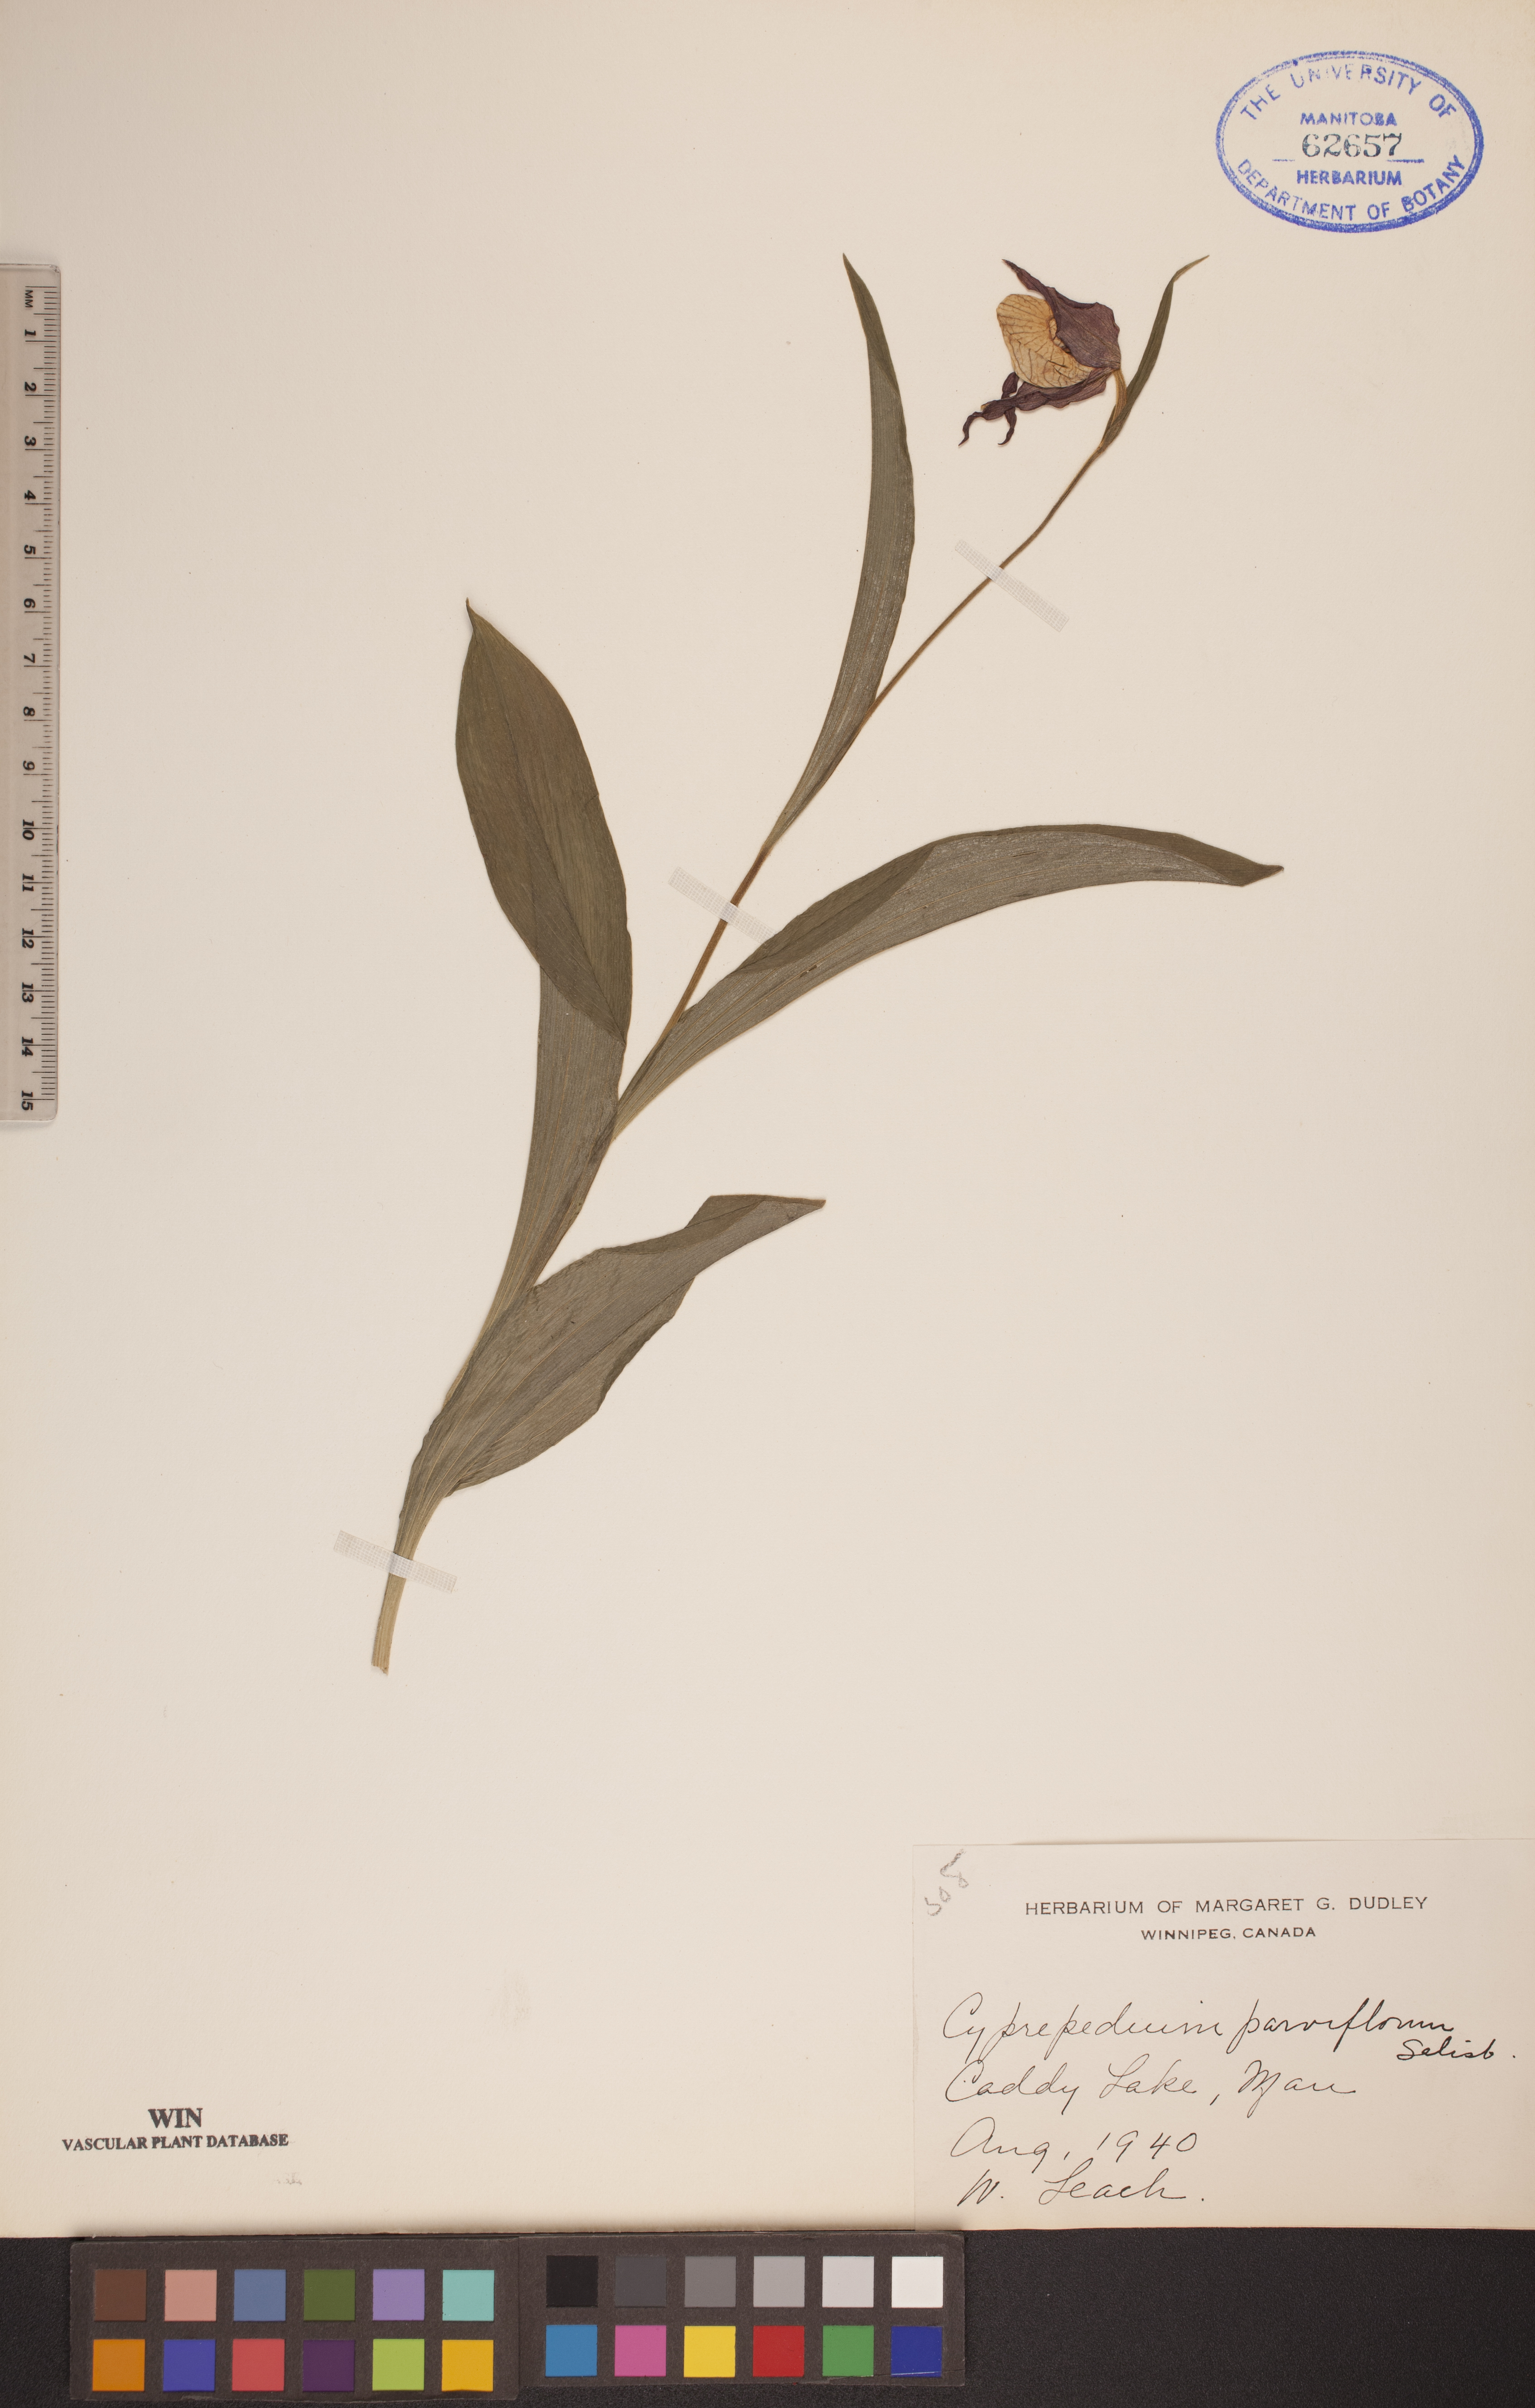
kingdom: Plantae
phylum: Tracheophyta
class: Liliopsida
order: Asparagales
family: Orchidaceae
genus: Cypripedium
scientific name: Cypripedium parviflorum
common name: American yellow lady's-slipper
